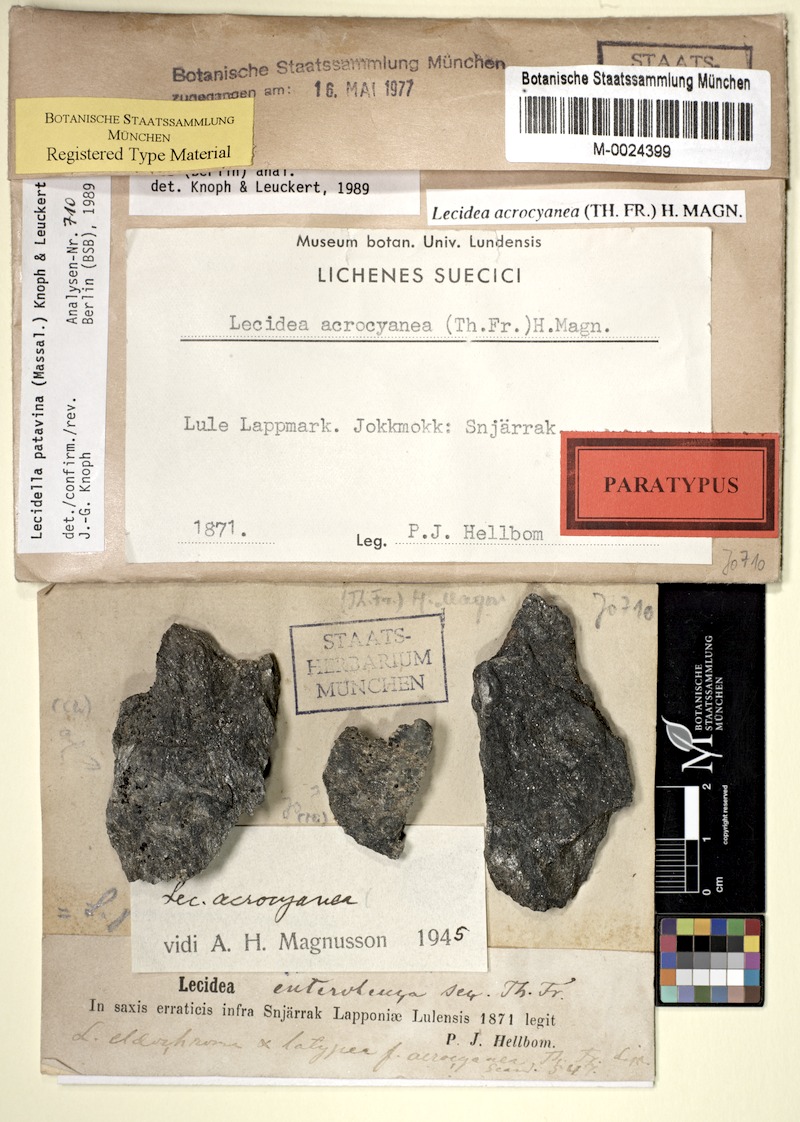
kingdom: Fungi
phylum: Ascomycota
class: Lecanoromycetes
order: Lecanorales
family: Lecanoraceae
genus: Lecidella
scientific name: Lecidella patavina
